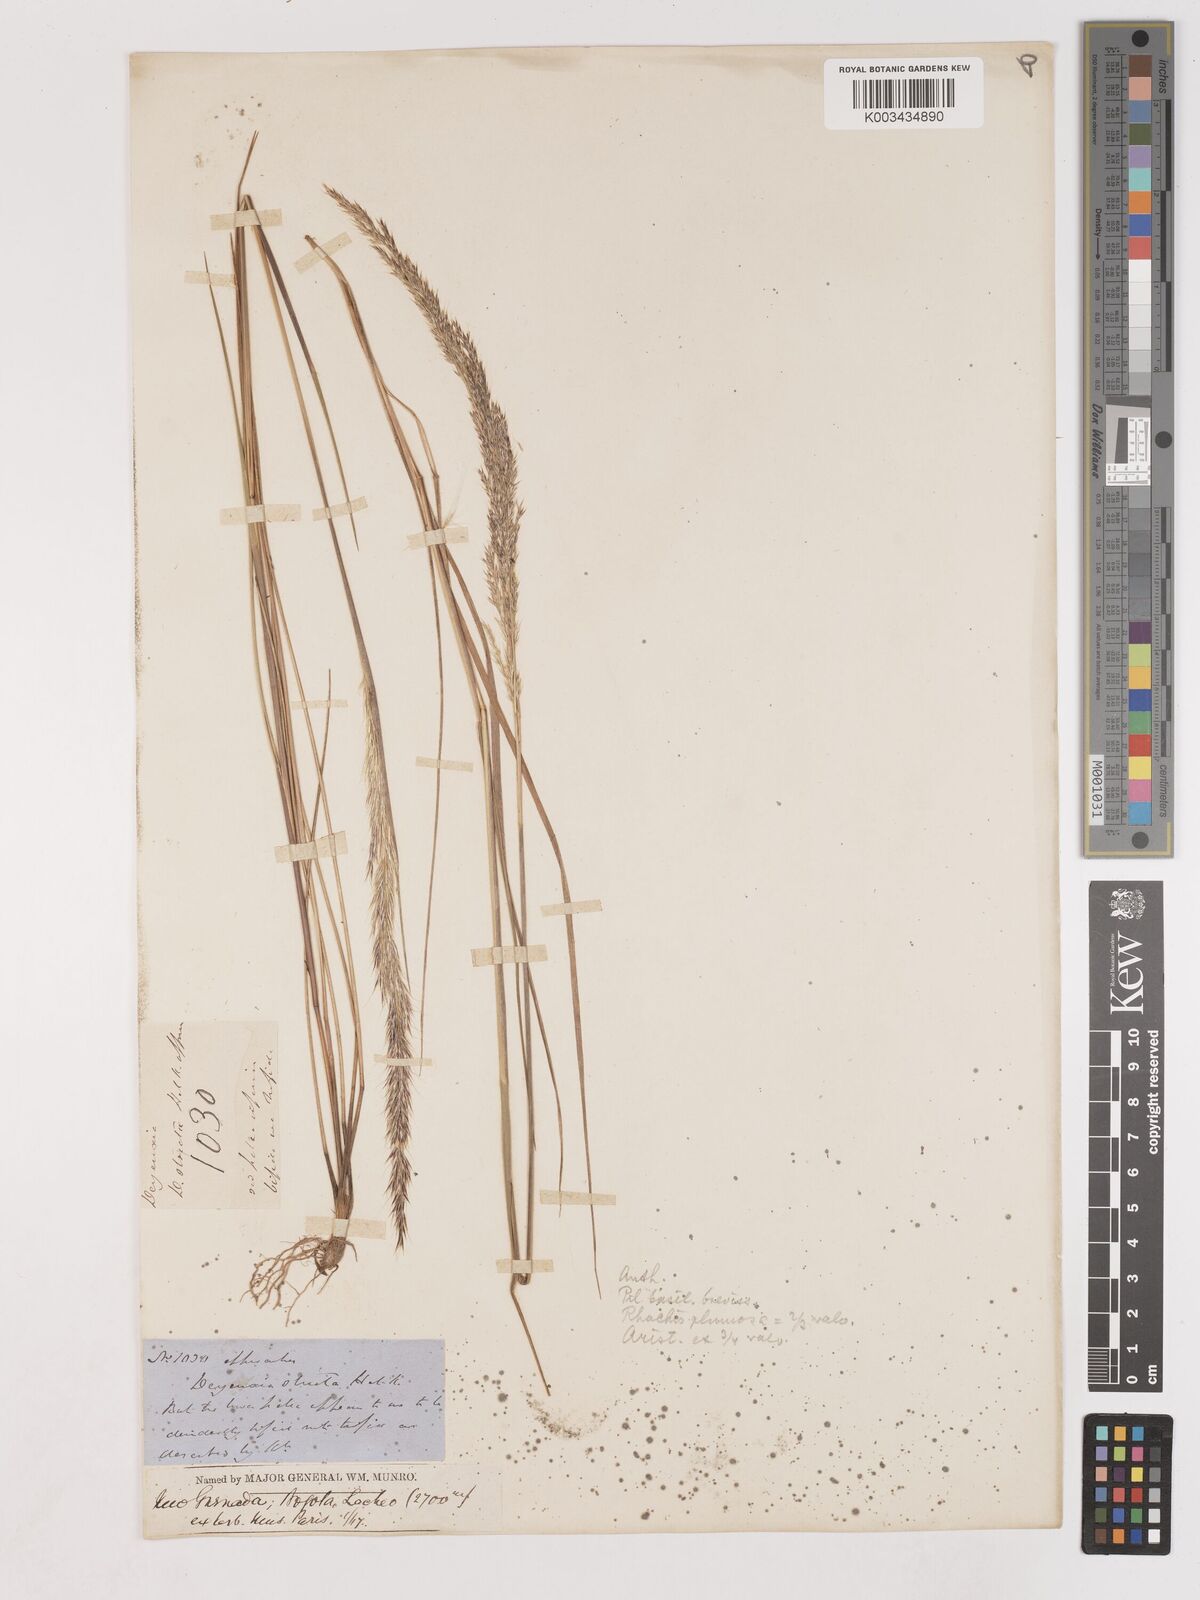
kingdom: Plantae
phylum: Tracheophyta
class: Liliopsida
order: Poales
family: Poaceae
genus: Cinnagrostis
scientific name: Cinnagrostis recta
